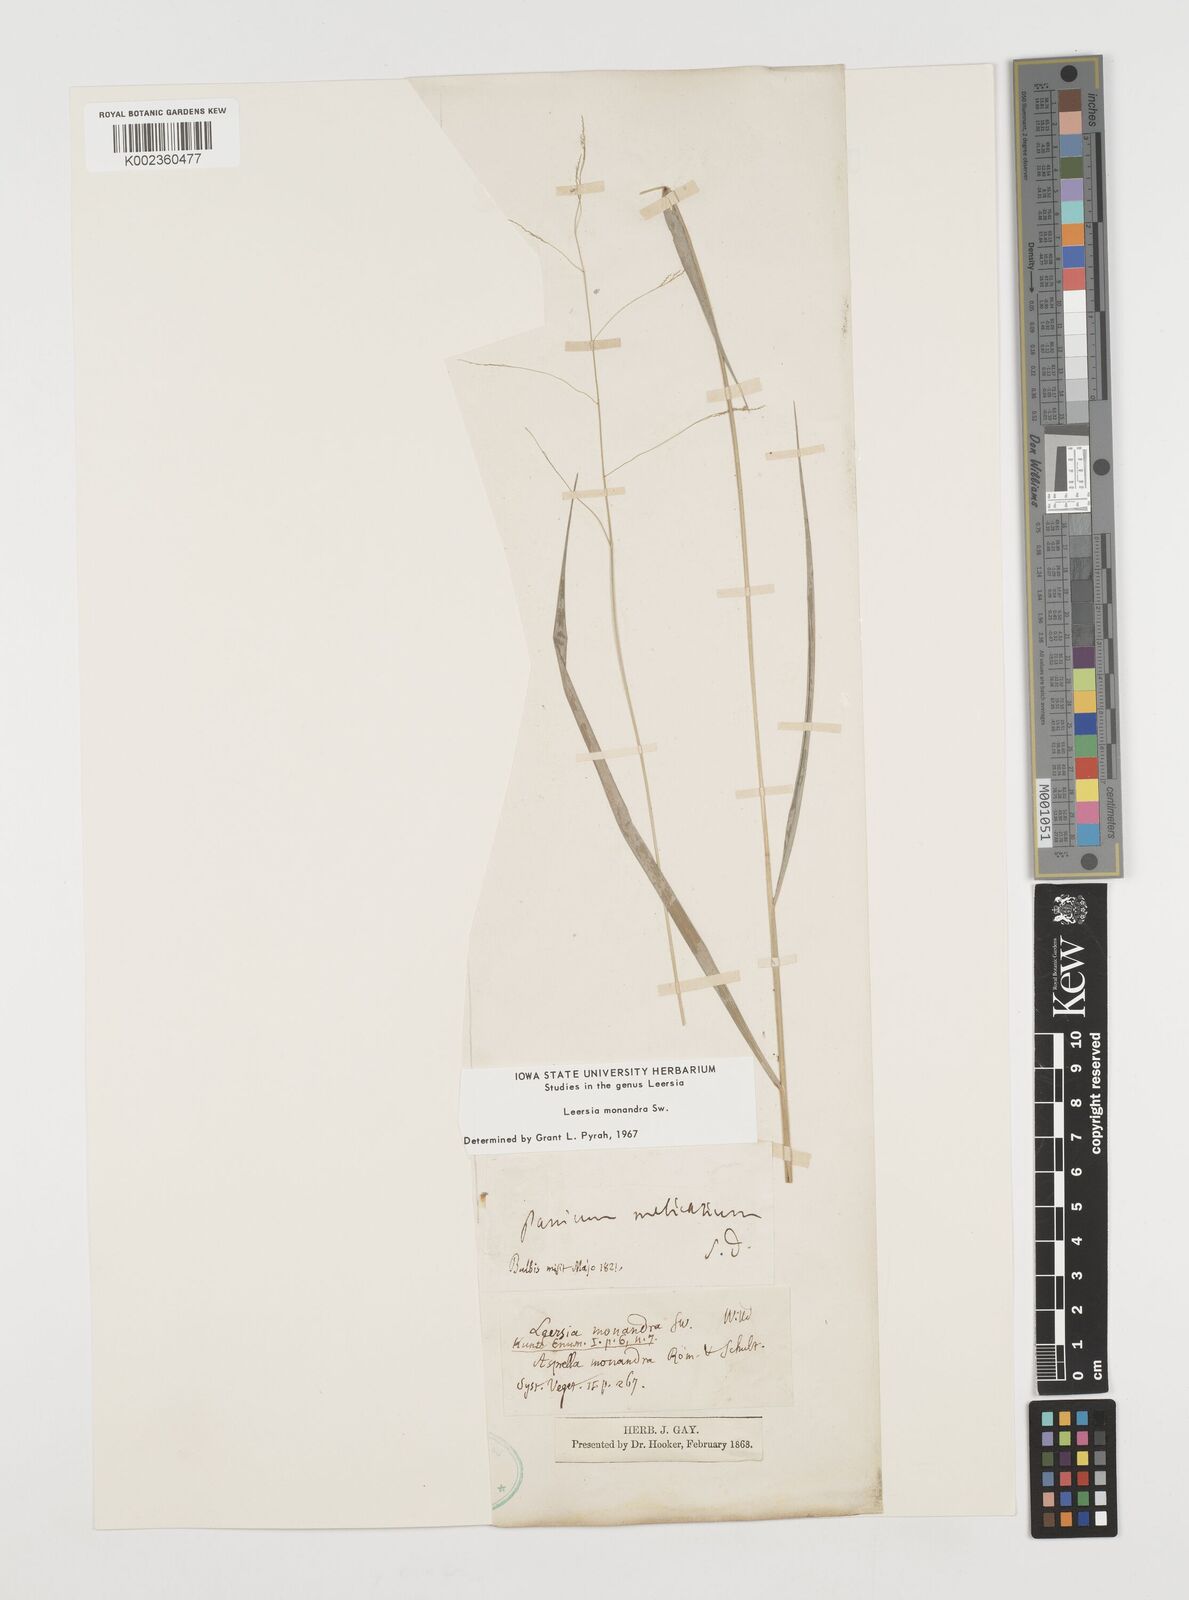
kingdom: Plantae
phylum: Tracheophyta
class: Liliopsida
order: Poales
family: Poaceae
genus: Leersia
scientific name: Leersia monandra
